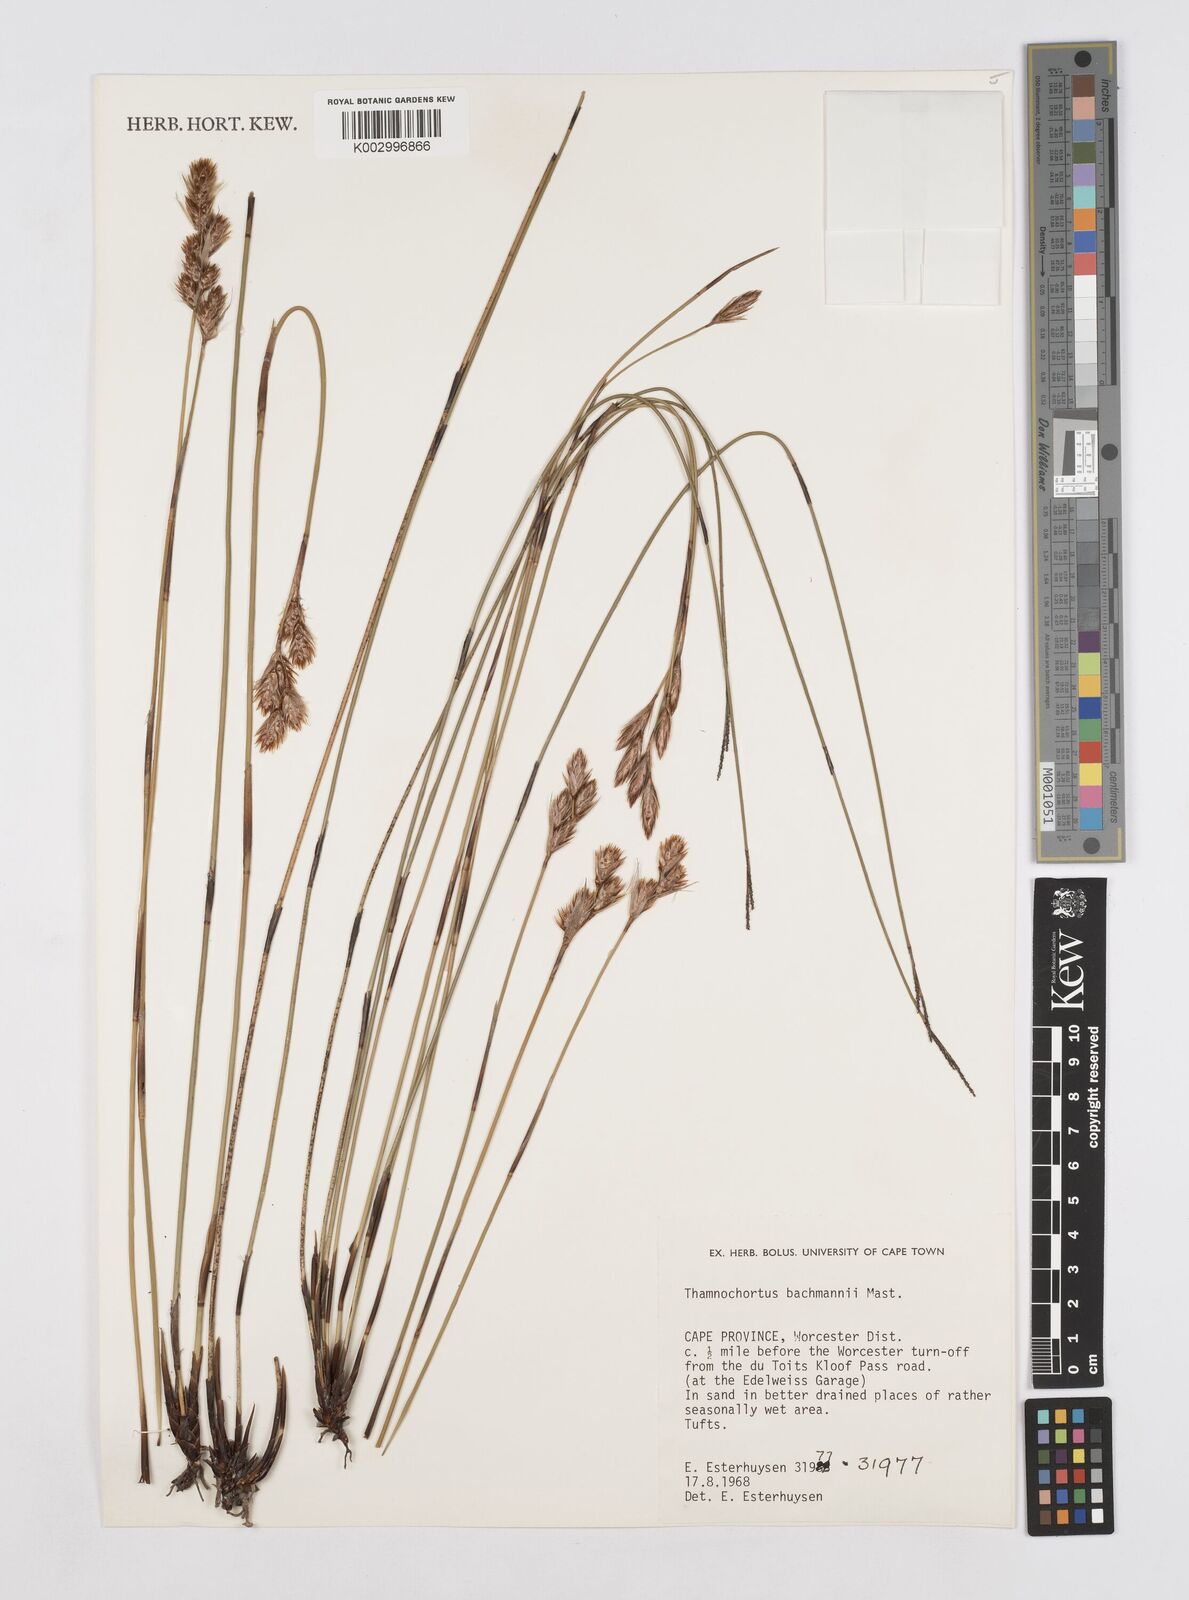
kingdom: Plantae
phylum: Tracheophyta
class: Liliopsida
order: Poales
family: Restionaceae
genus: Thamnochortus
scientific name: Thamnochortus bachmannii
